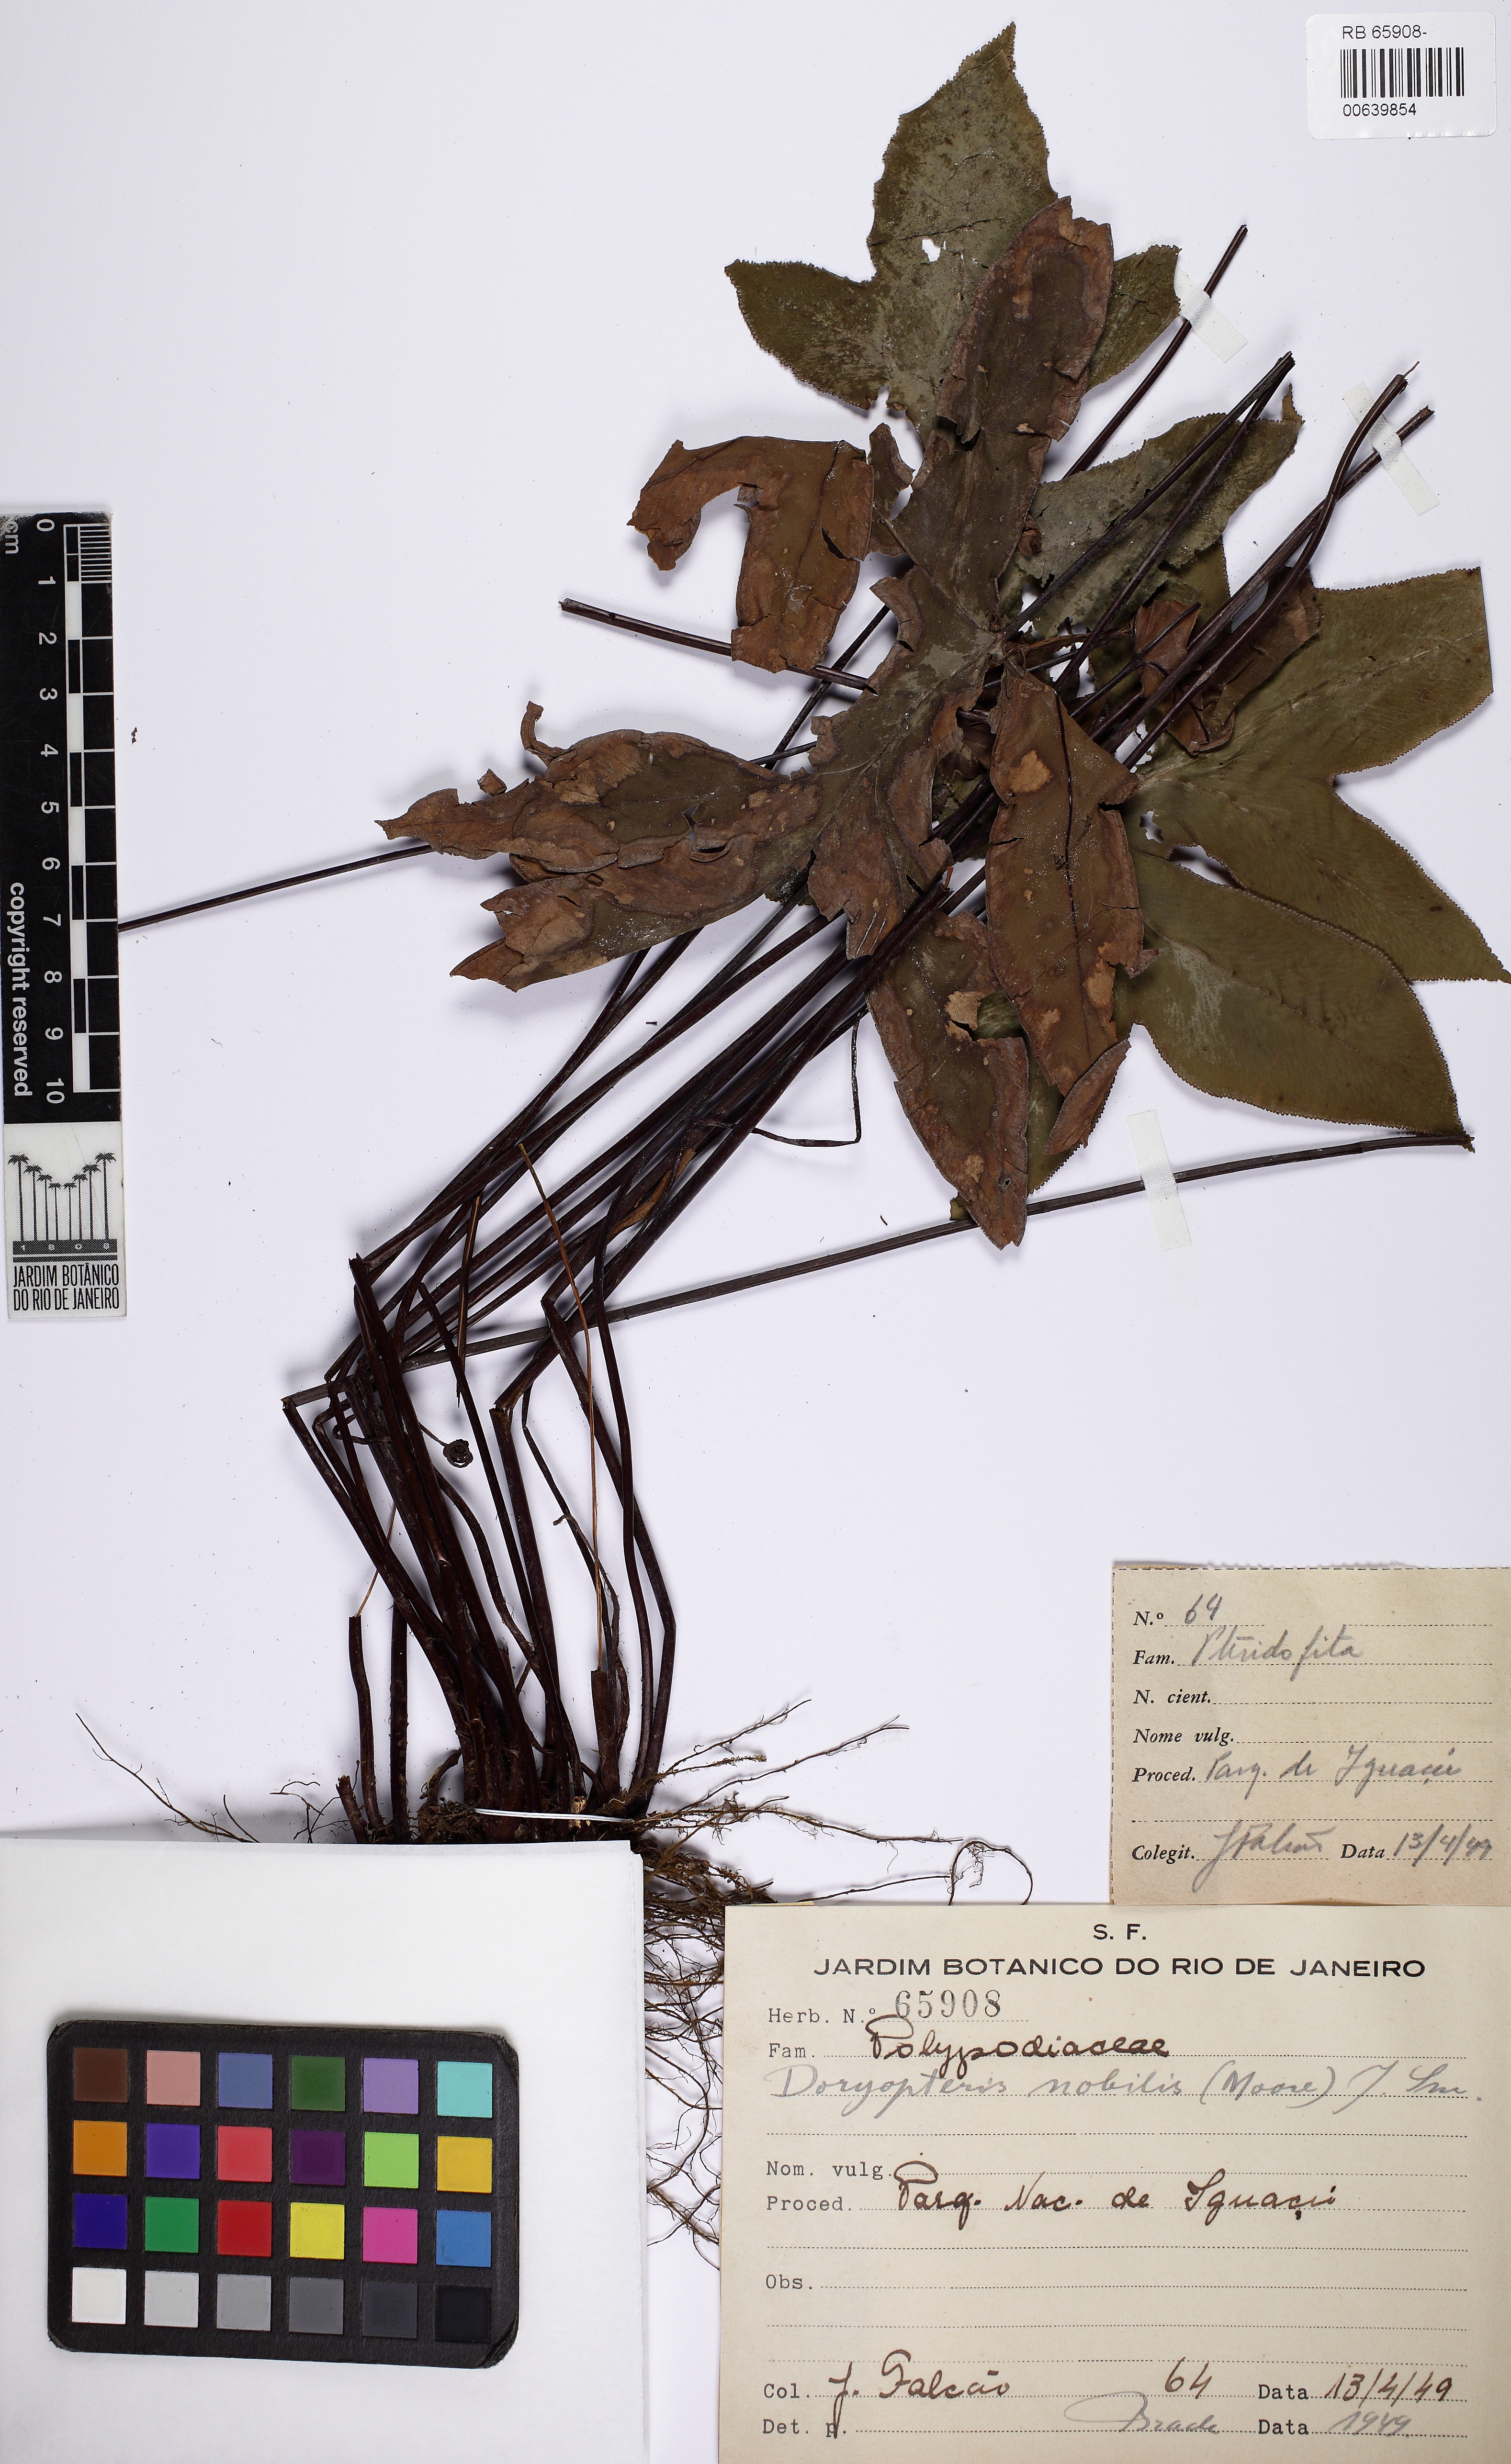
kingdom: Plantae
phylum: Tracheophyta
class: Polypodiopsida
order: Polypodiales
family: Pteridaceae
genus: Hemionitis
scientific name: Hemionitis Doryopteris patula
